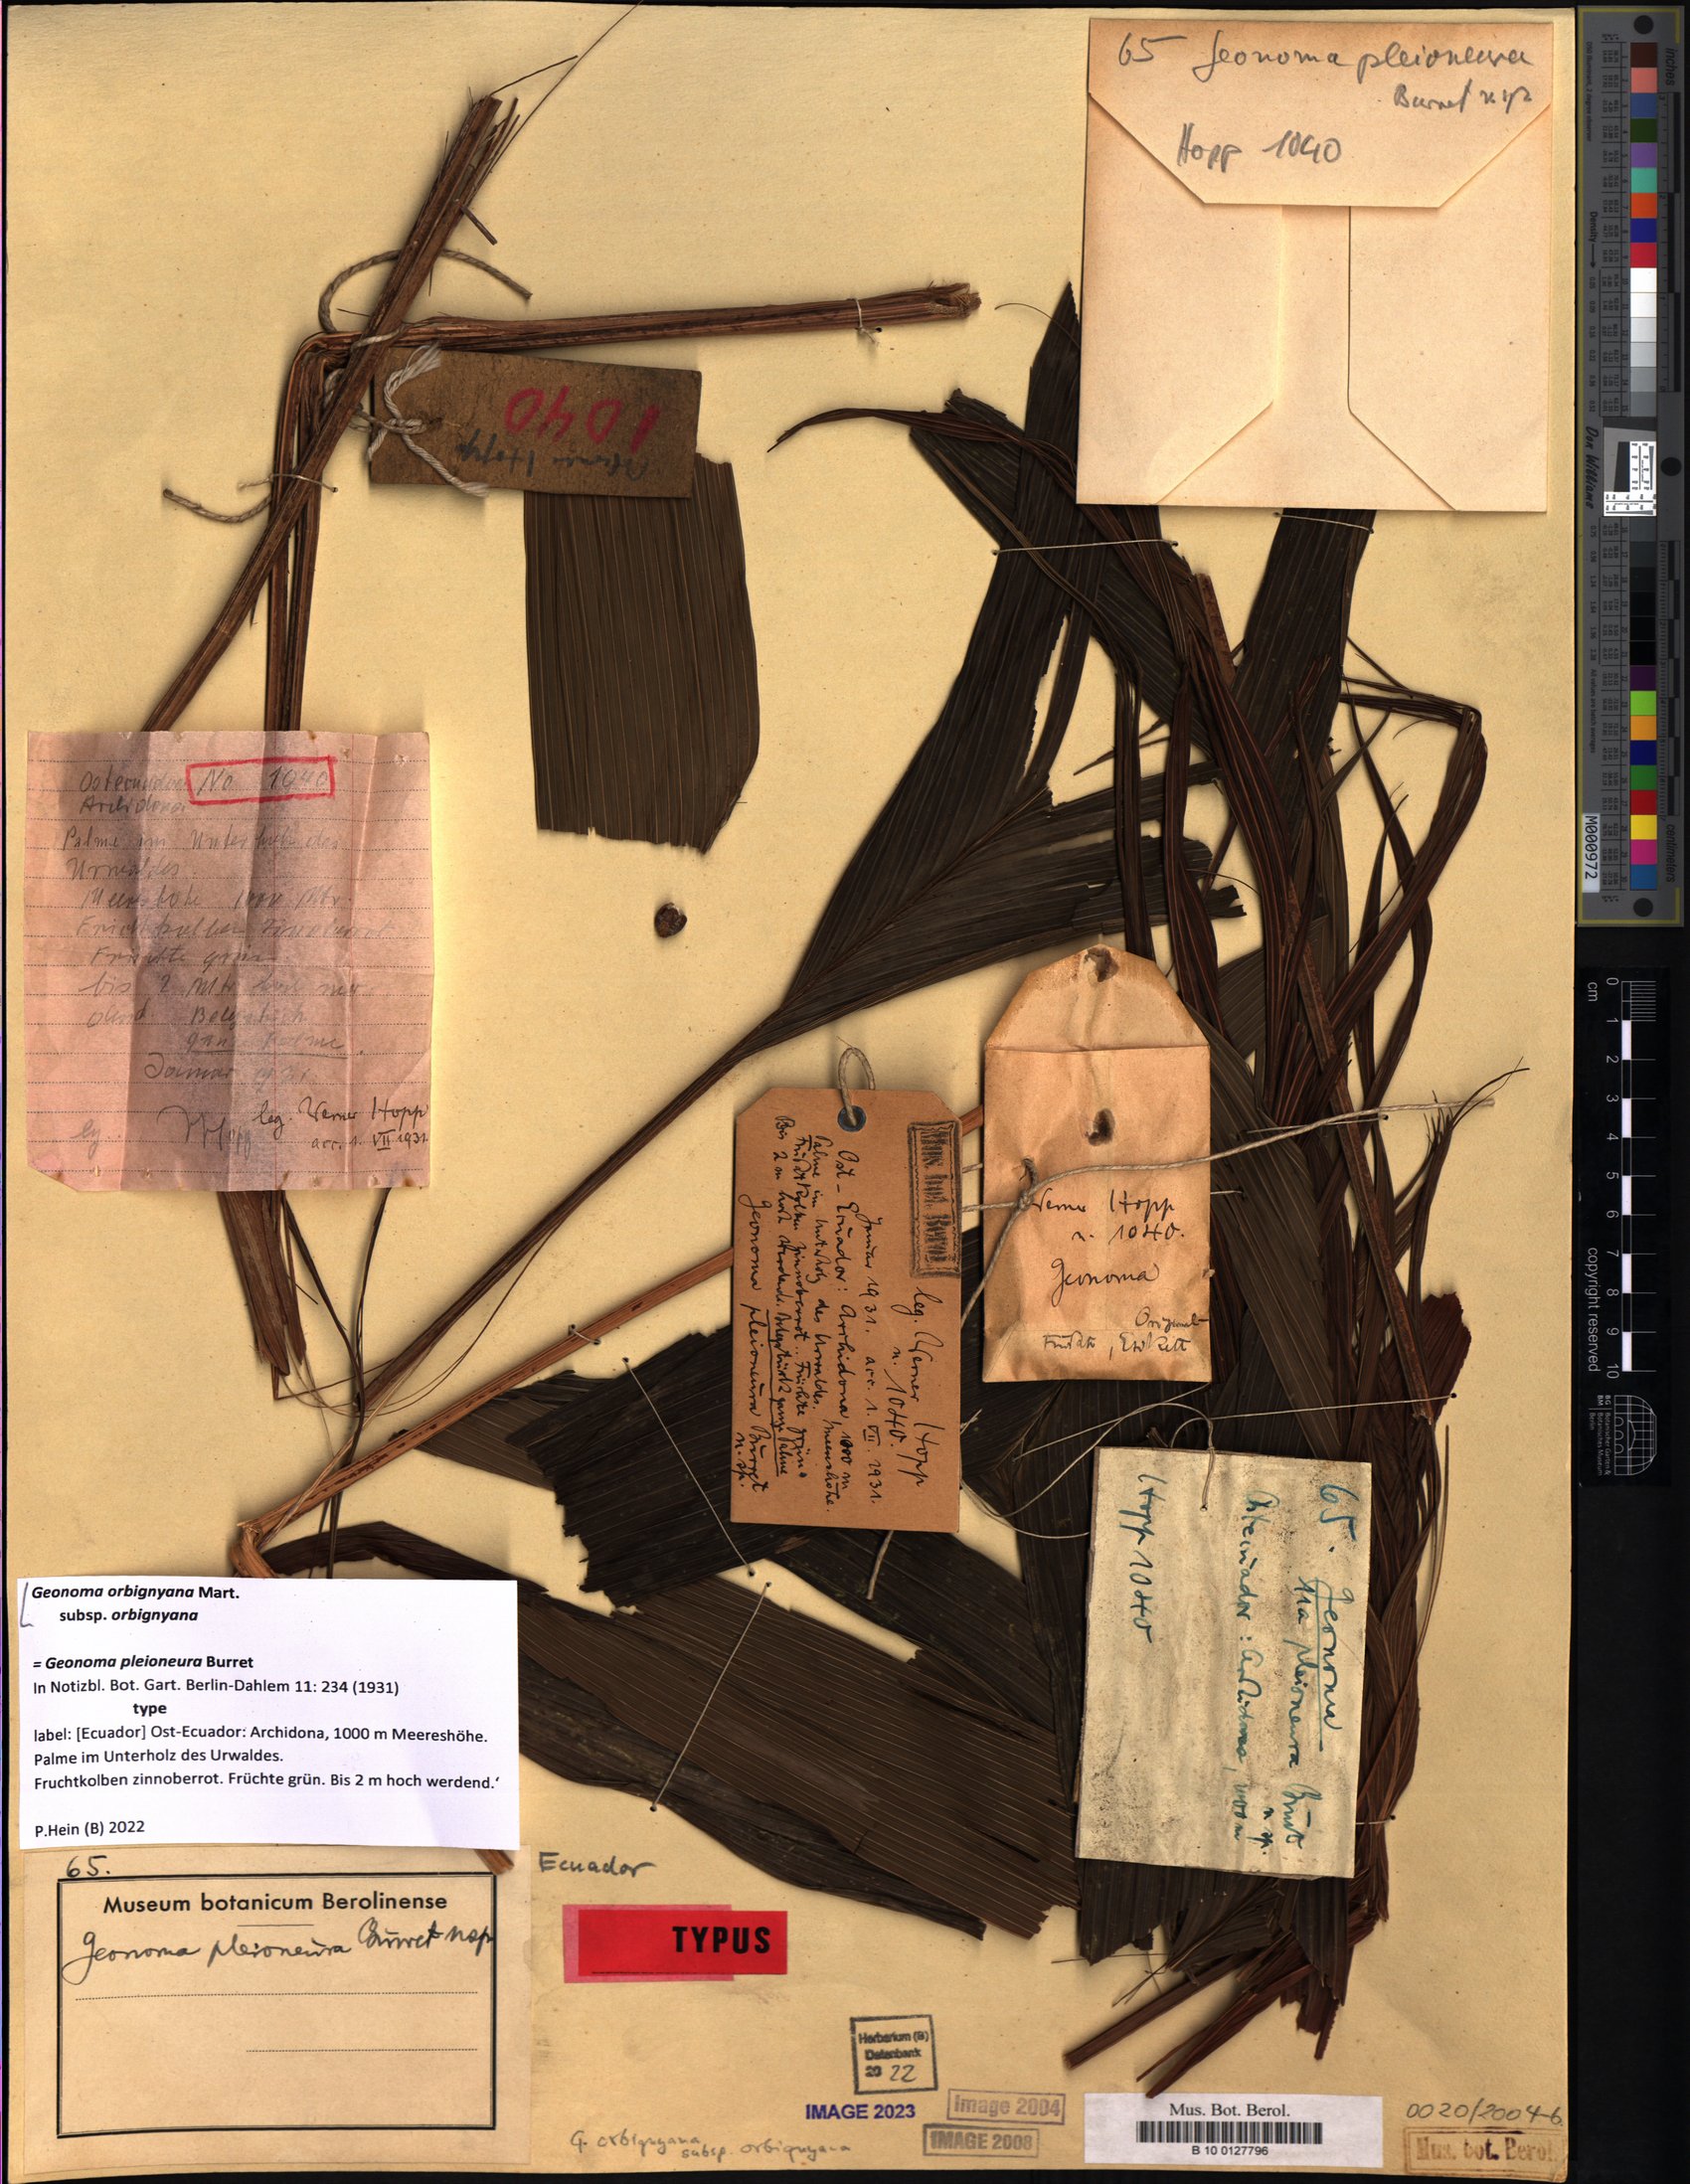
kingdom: Plantae
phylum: Tracheophyta
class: Liliopsida
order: Arecales
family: Arecaceae
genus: Geonoma
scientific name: Geonoma orbignyana
